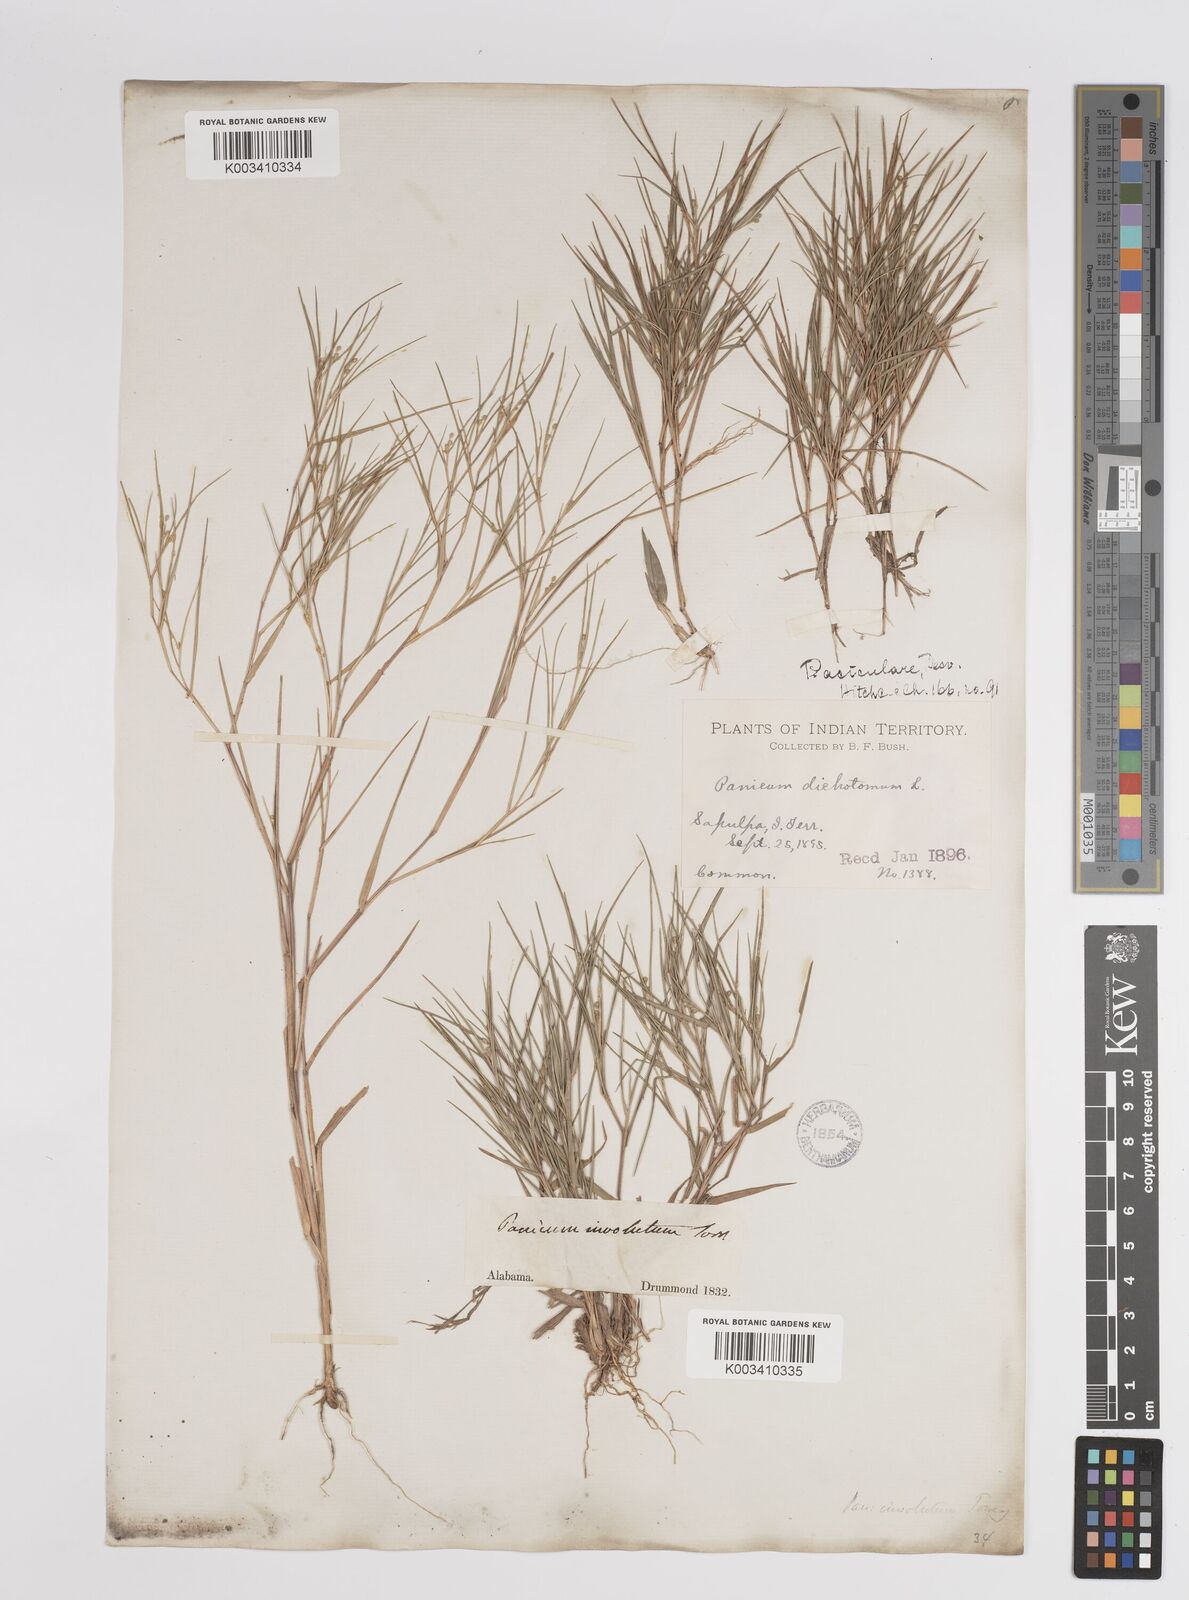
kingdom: Plantae
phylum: Tracheophyta
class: Liliopsida
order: Poales
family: Poaceae
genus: Dichanthelium
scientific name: Dichanthelium aciculare
